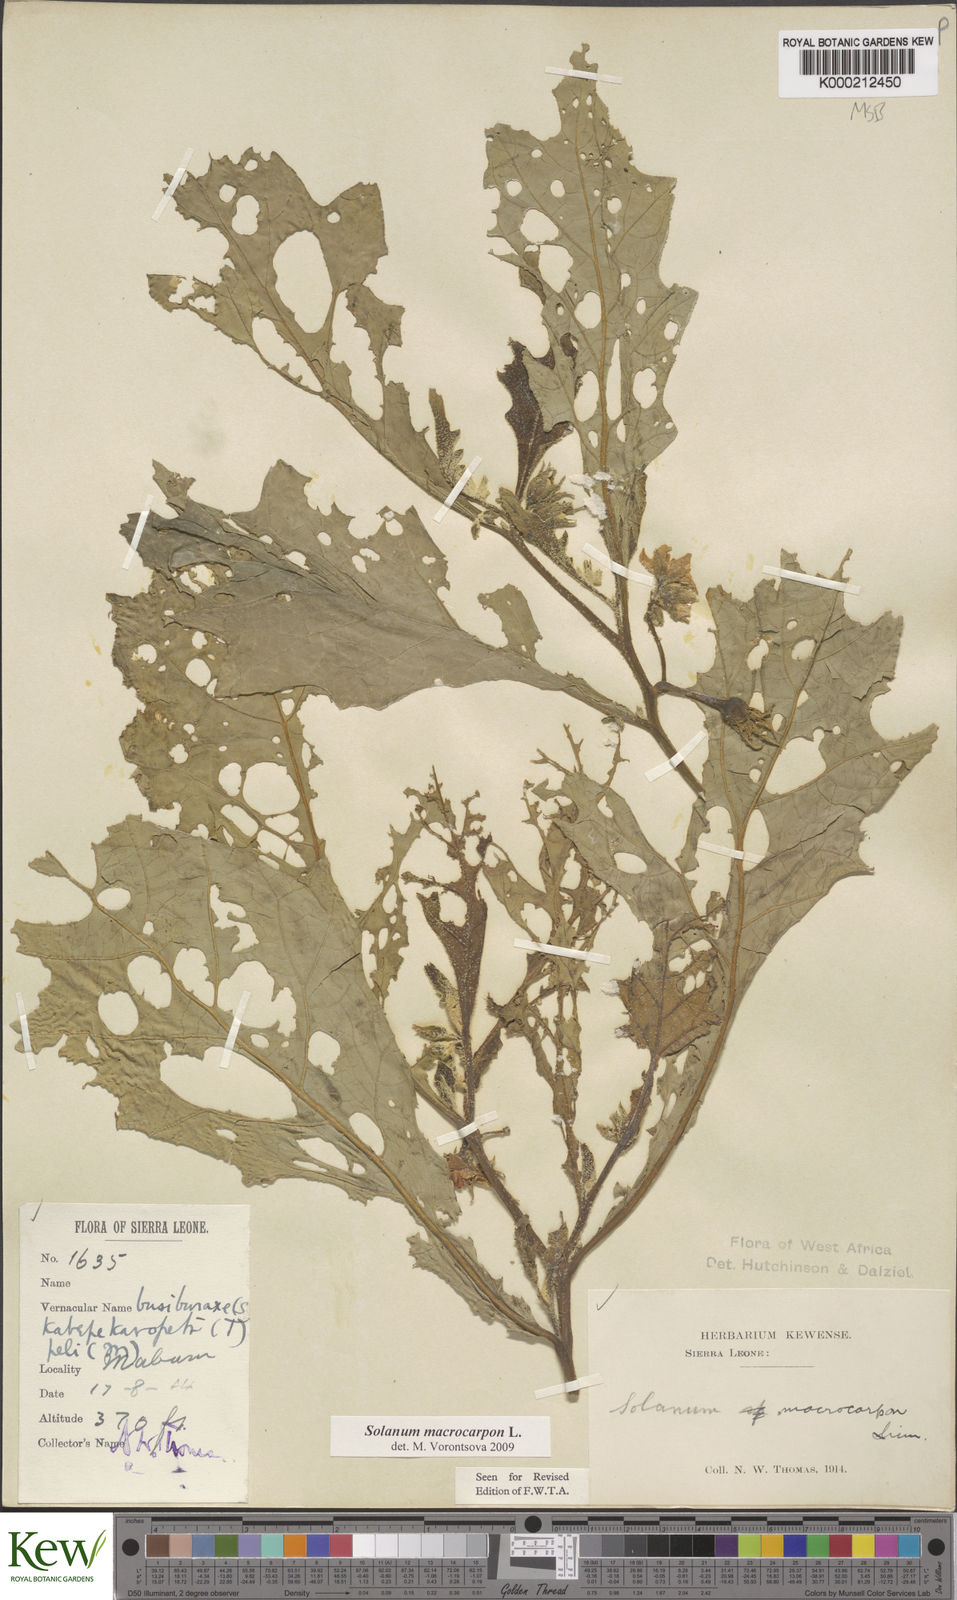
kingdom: Plantae
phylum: Tracheophyta
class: Magnoliopsida
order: Solanales
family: Solanaceae
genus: Solanum
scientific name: Solanum macrocarpon
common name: African eggplant
